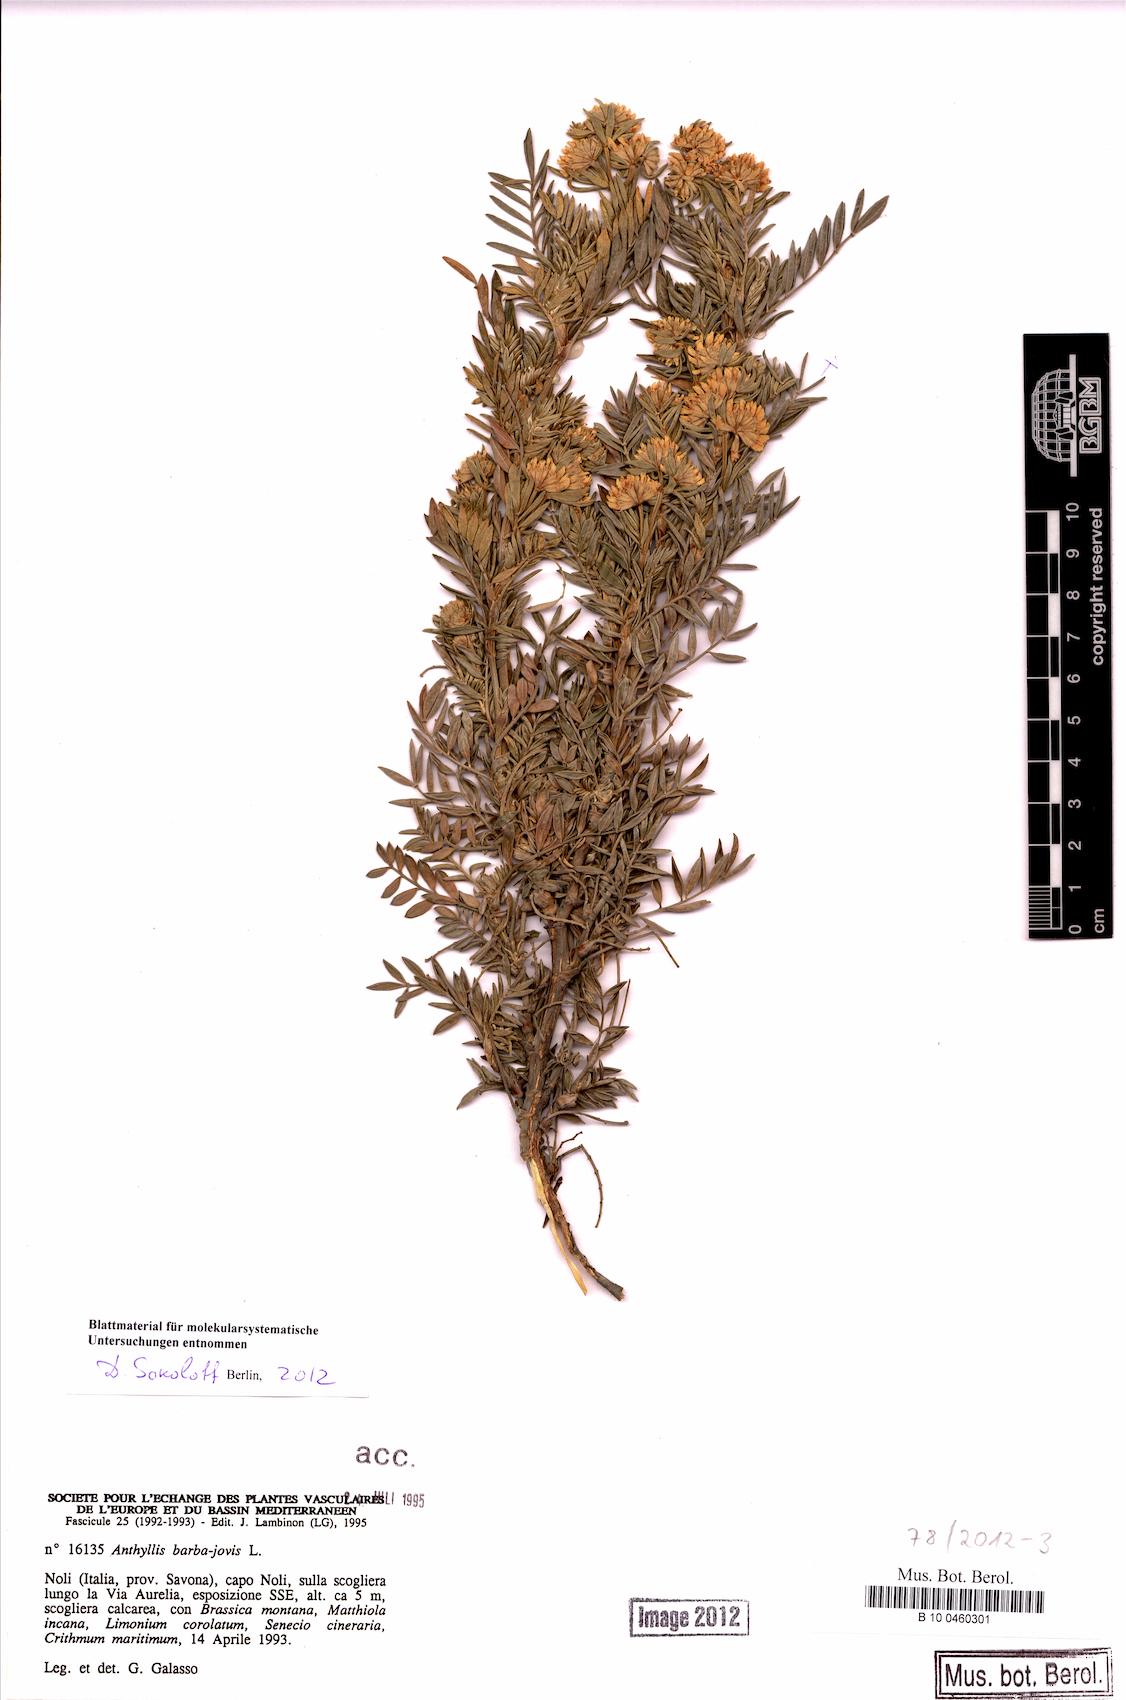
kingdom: Plantae
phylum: Tracheophyta
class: Magnoliopsida
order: Fabales
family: Fabaceae
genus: Anthyllis
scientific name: Anthyllis barba-jovis
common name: Jupiter's-beard
